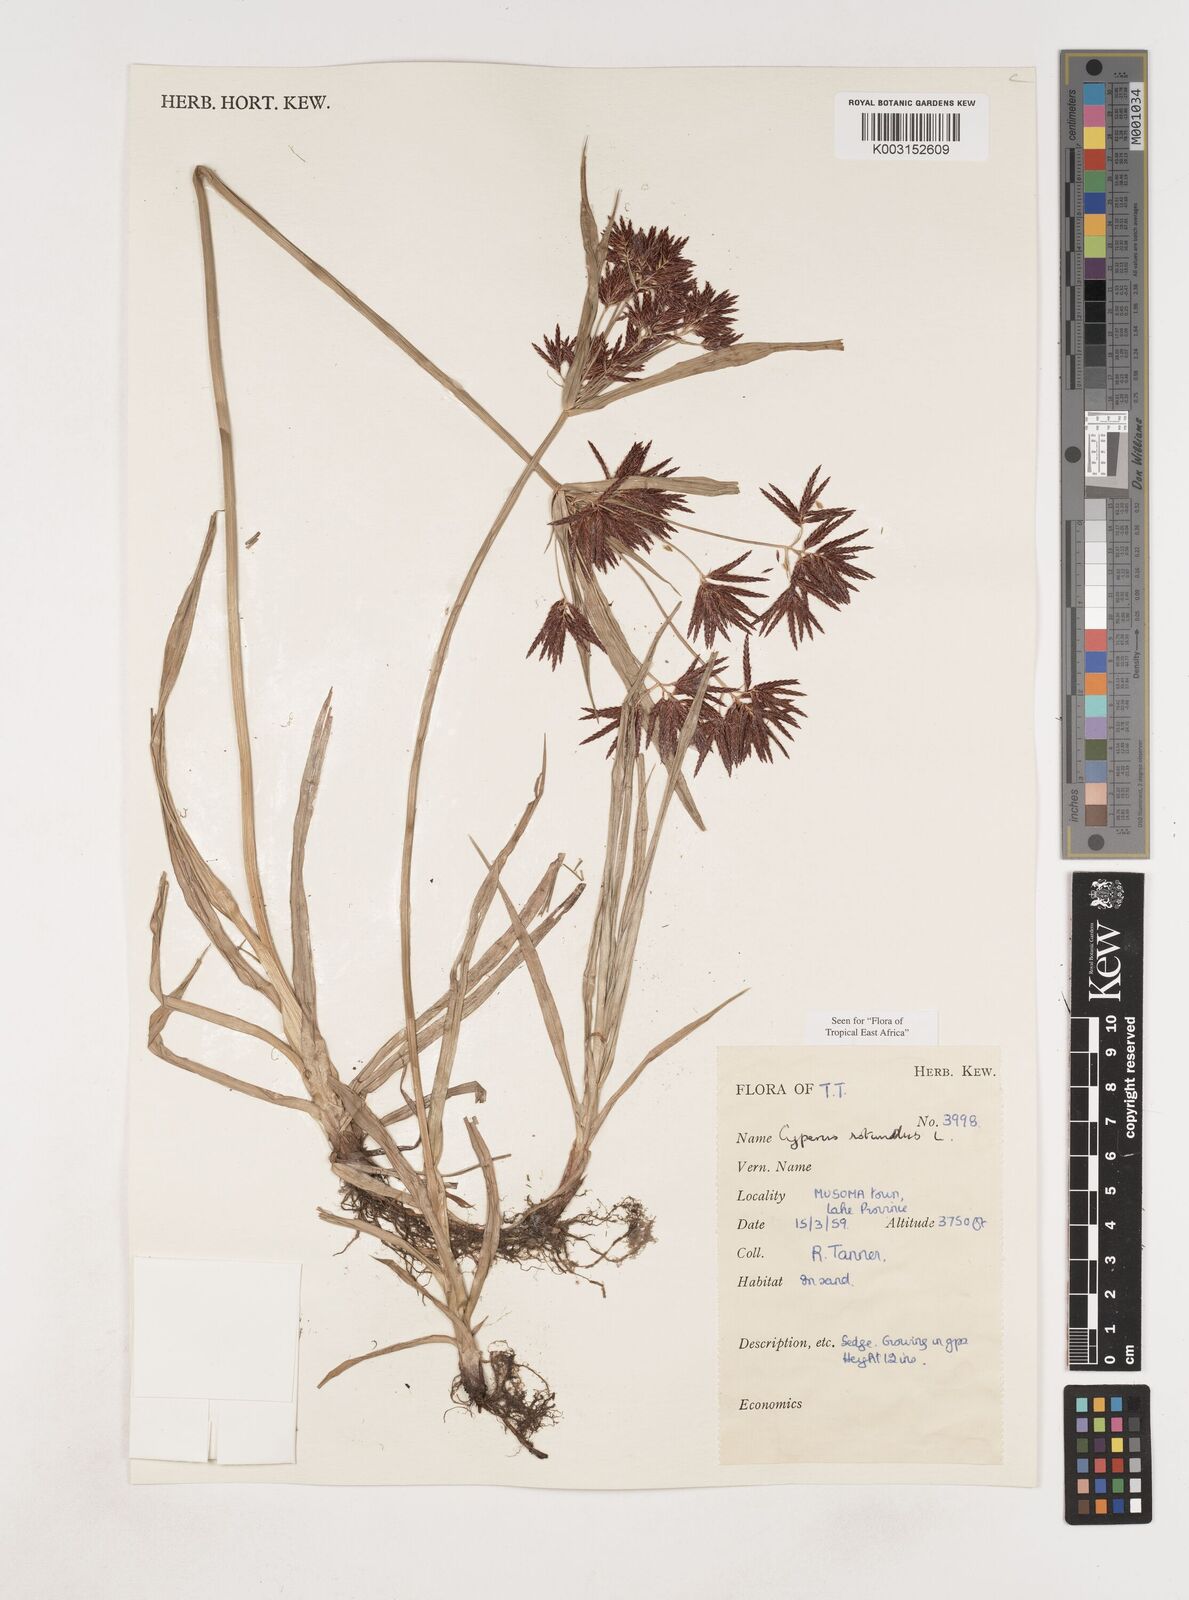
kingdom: Plantae
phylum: Tracheophyta
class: Liliopsida
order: Poales
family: Cyperaceae
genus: Cyperus
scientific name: Cyperus rotundus
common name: Nutgrass
